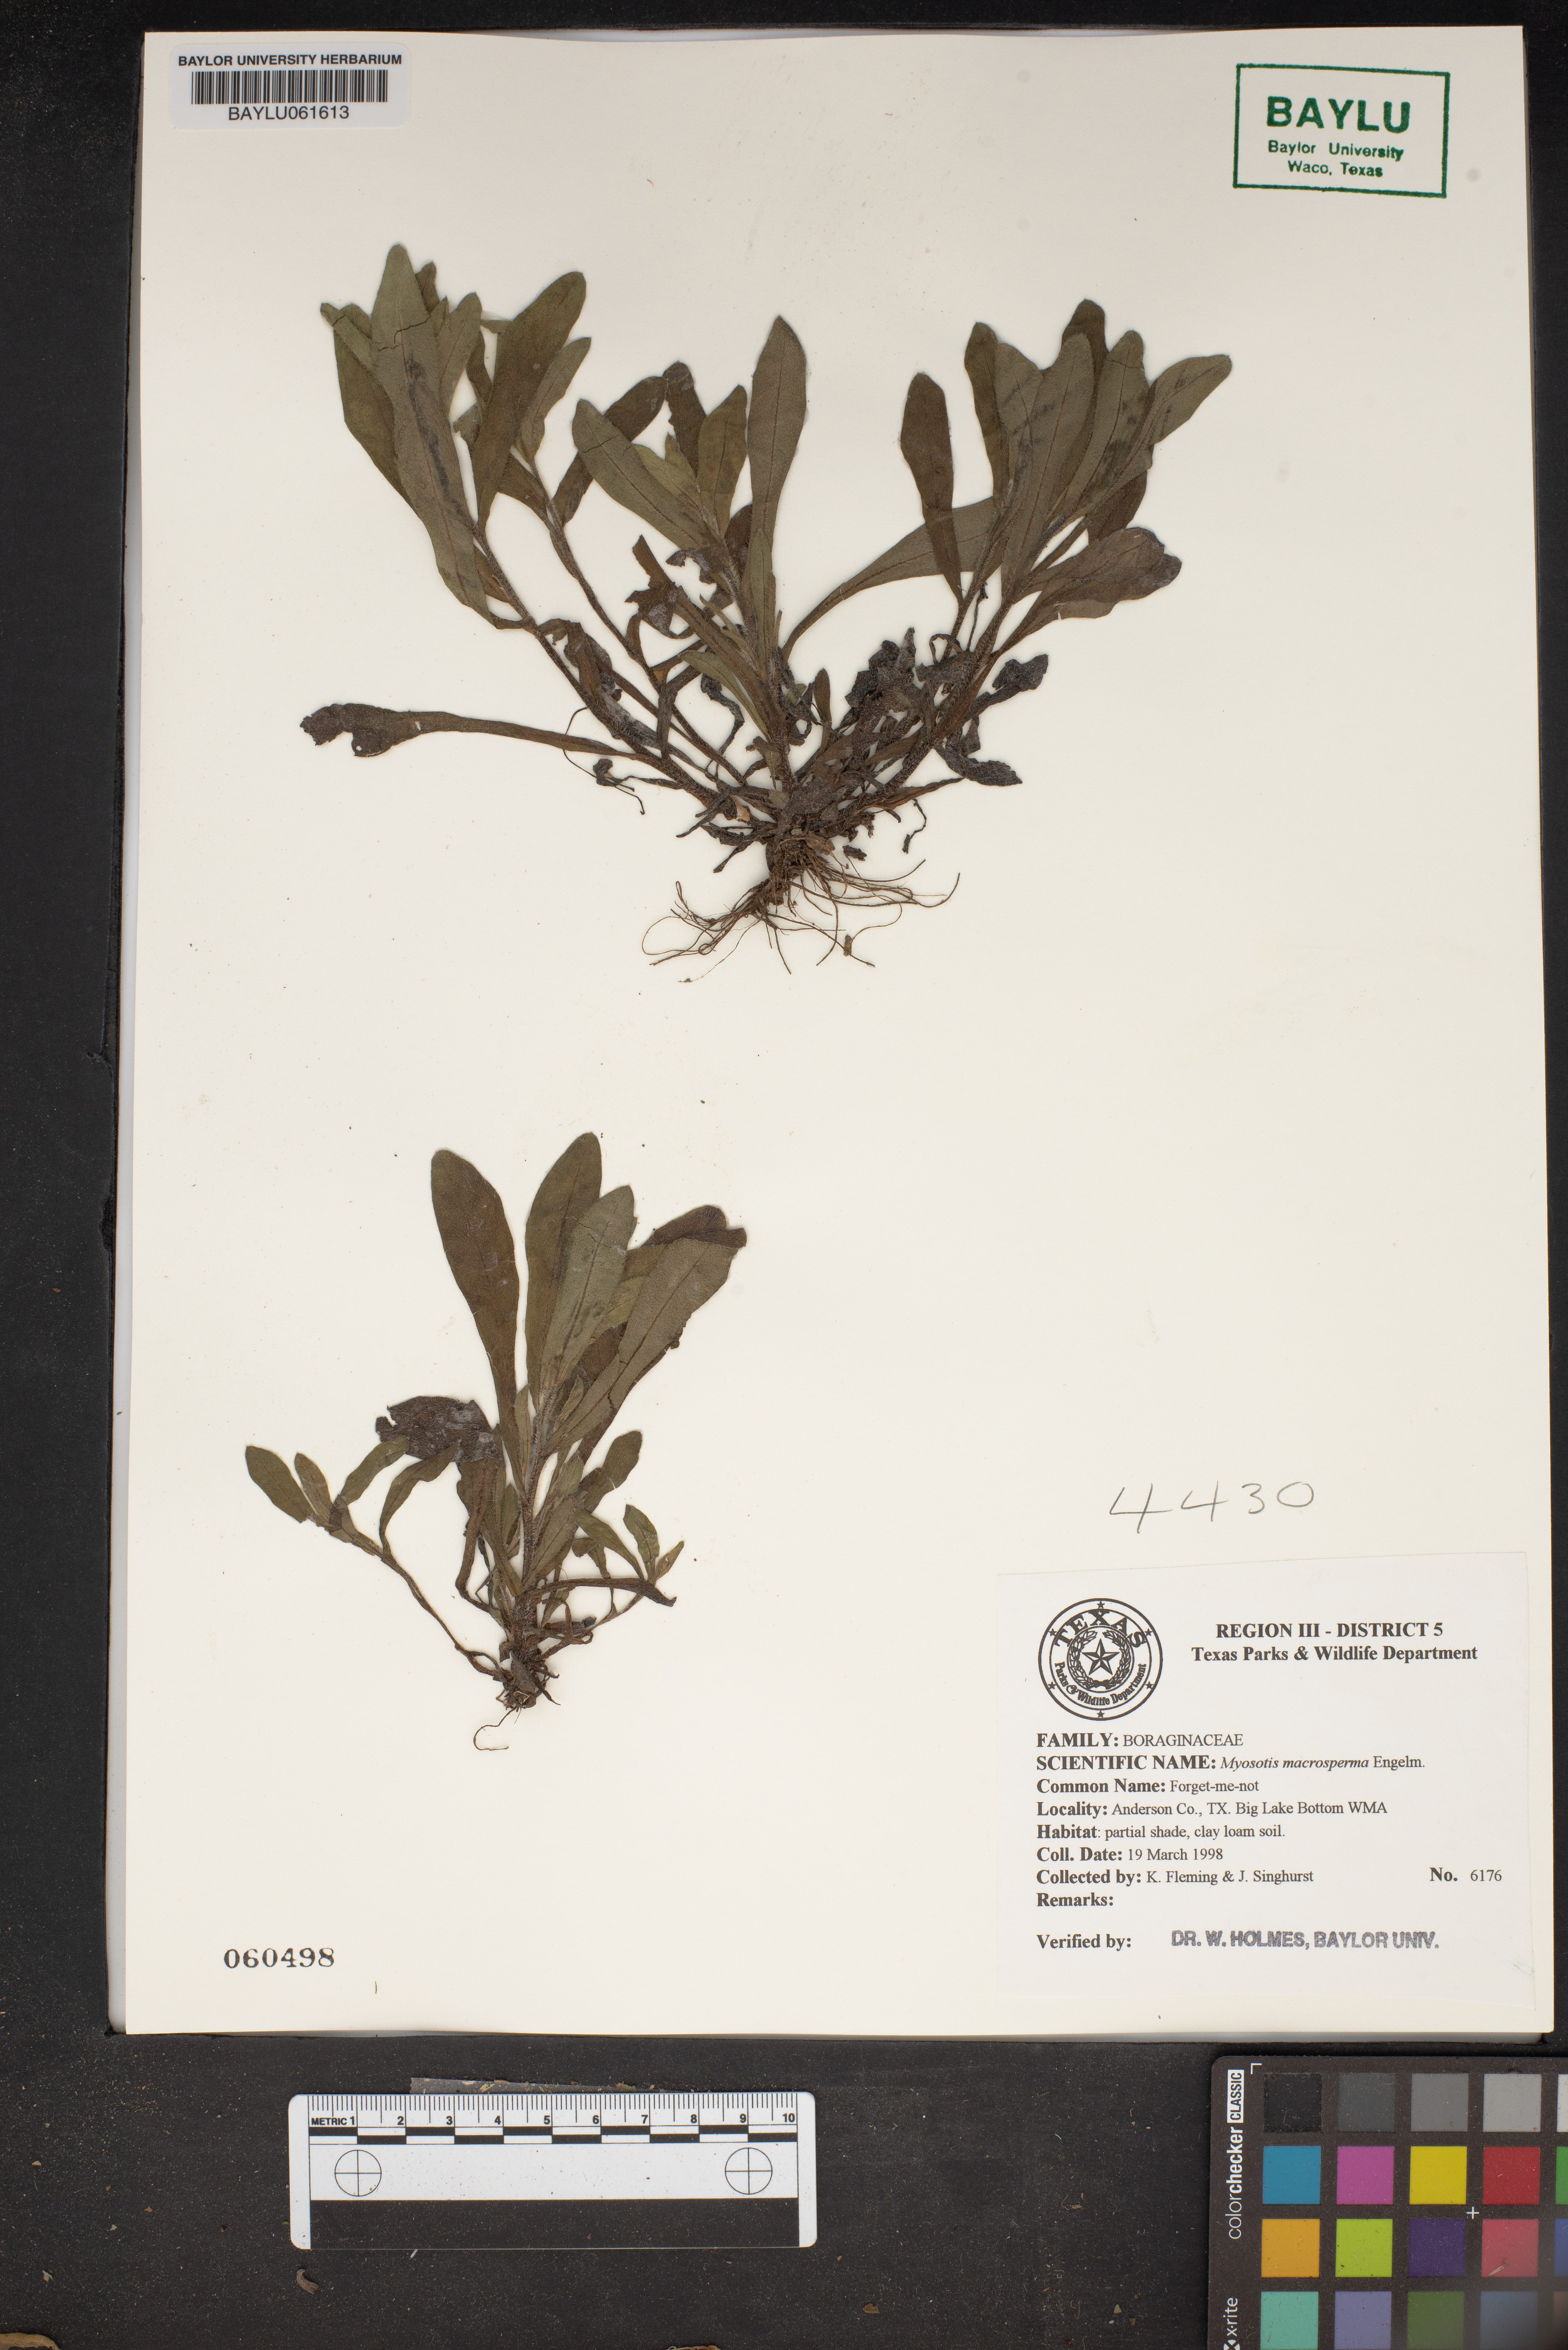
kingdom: Plantae
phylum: Tracheophyta
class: Magnoliopsida
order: Boraginales
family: Boraginaceae
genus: Myosotis
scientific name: Myosotis macrosperma
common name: Large-seed forget-me-not
